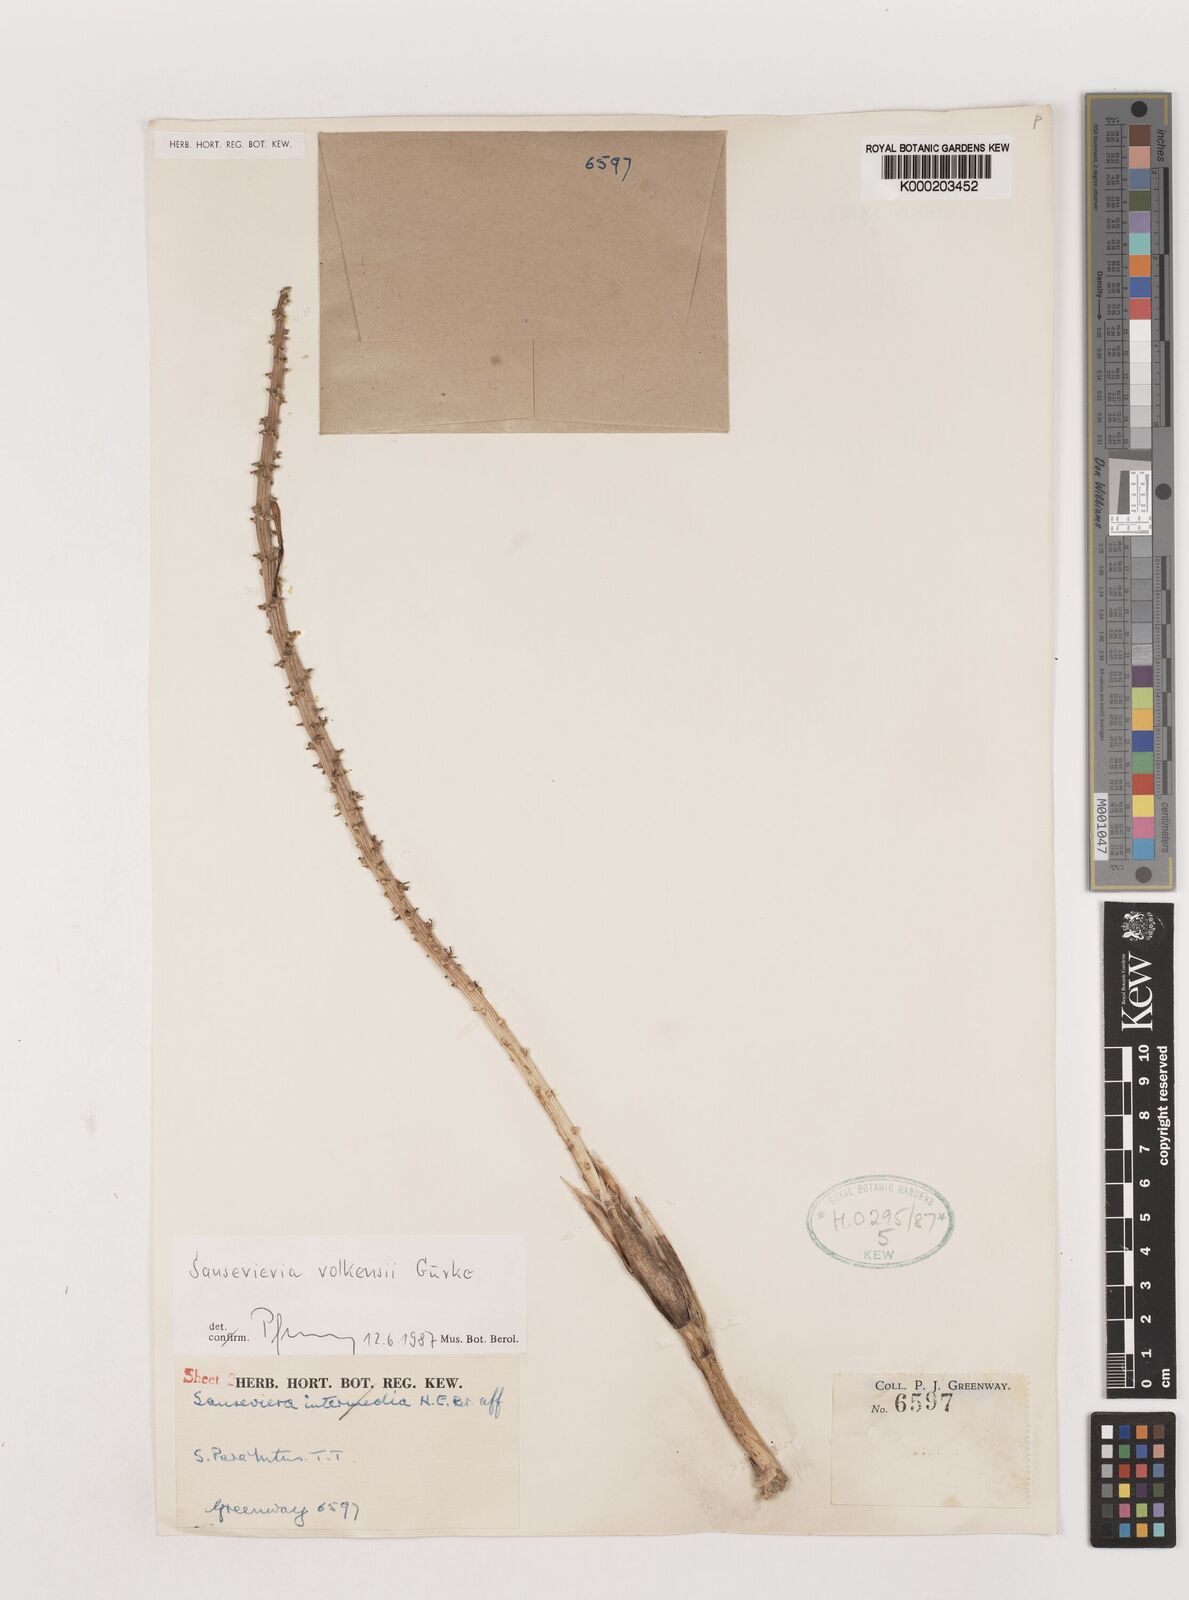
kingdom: Plantae
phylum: Tracheophyta
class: Liliopsida
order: Asparagales
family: Asparagaceae
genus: Dracaena
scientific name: Dracaena volkensii
